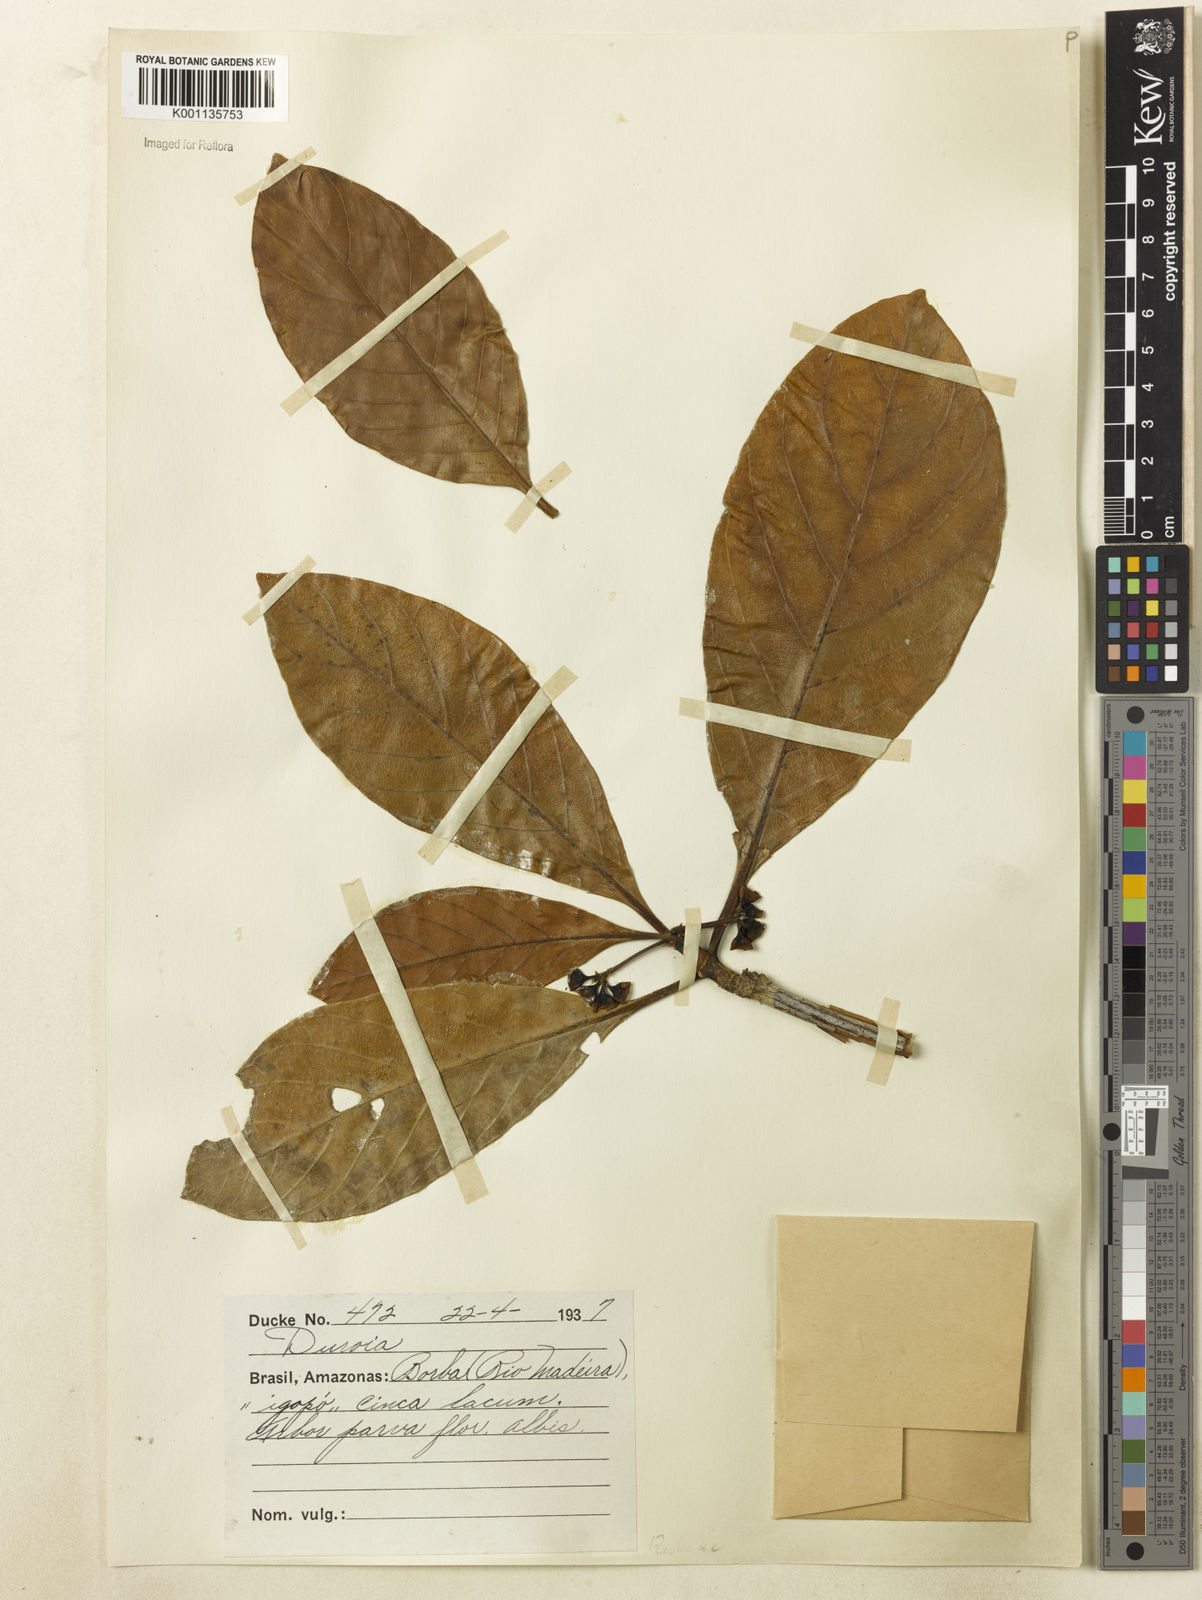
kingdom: Plantae
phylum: Tracheophyta
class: Magnoliopsida
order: Gentianales
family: Rubiaceae
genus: Duroia
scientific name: Duroia duckei
